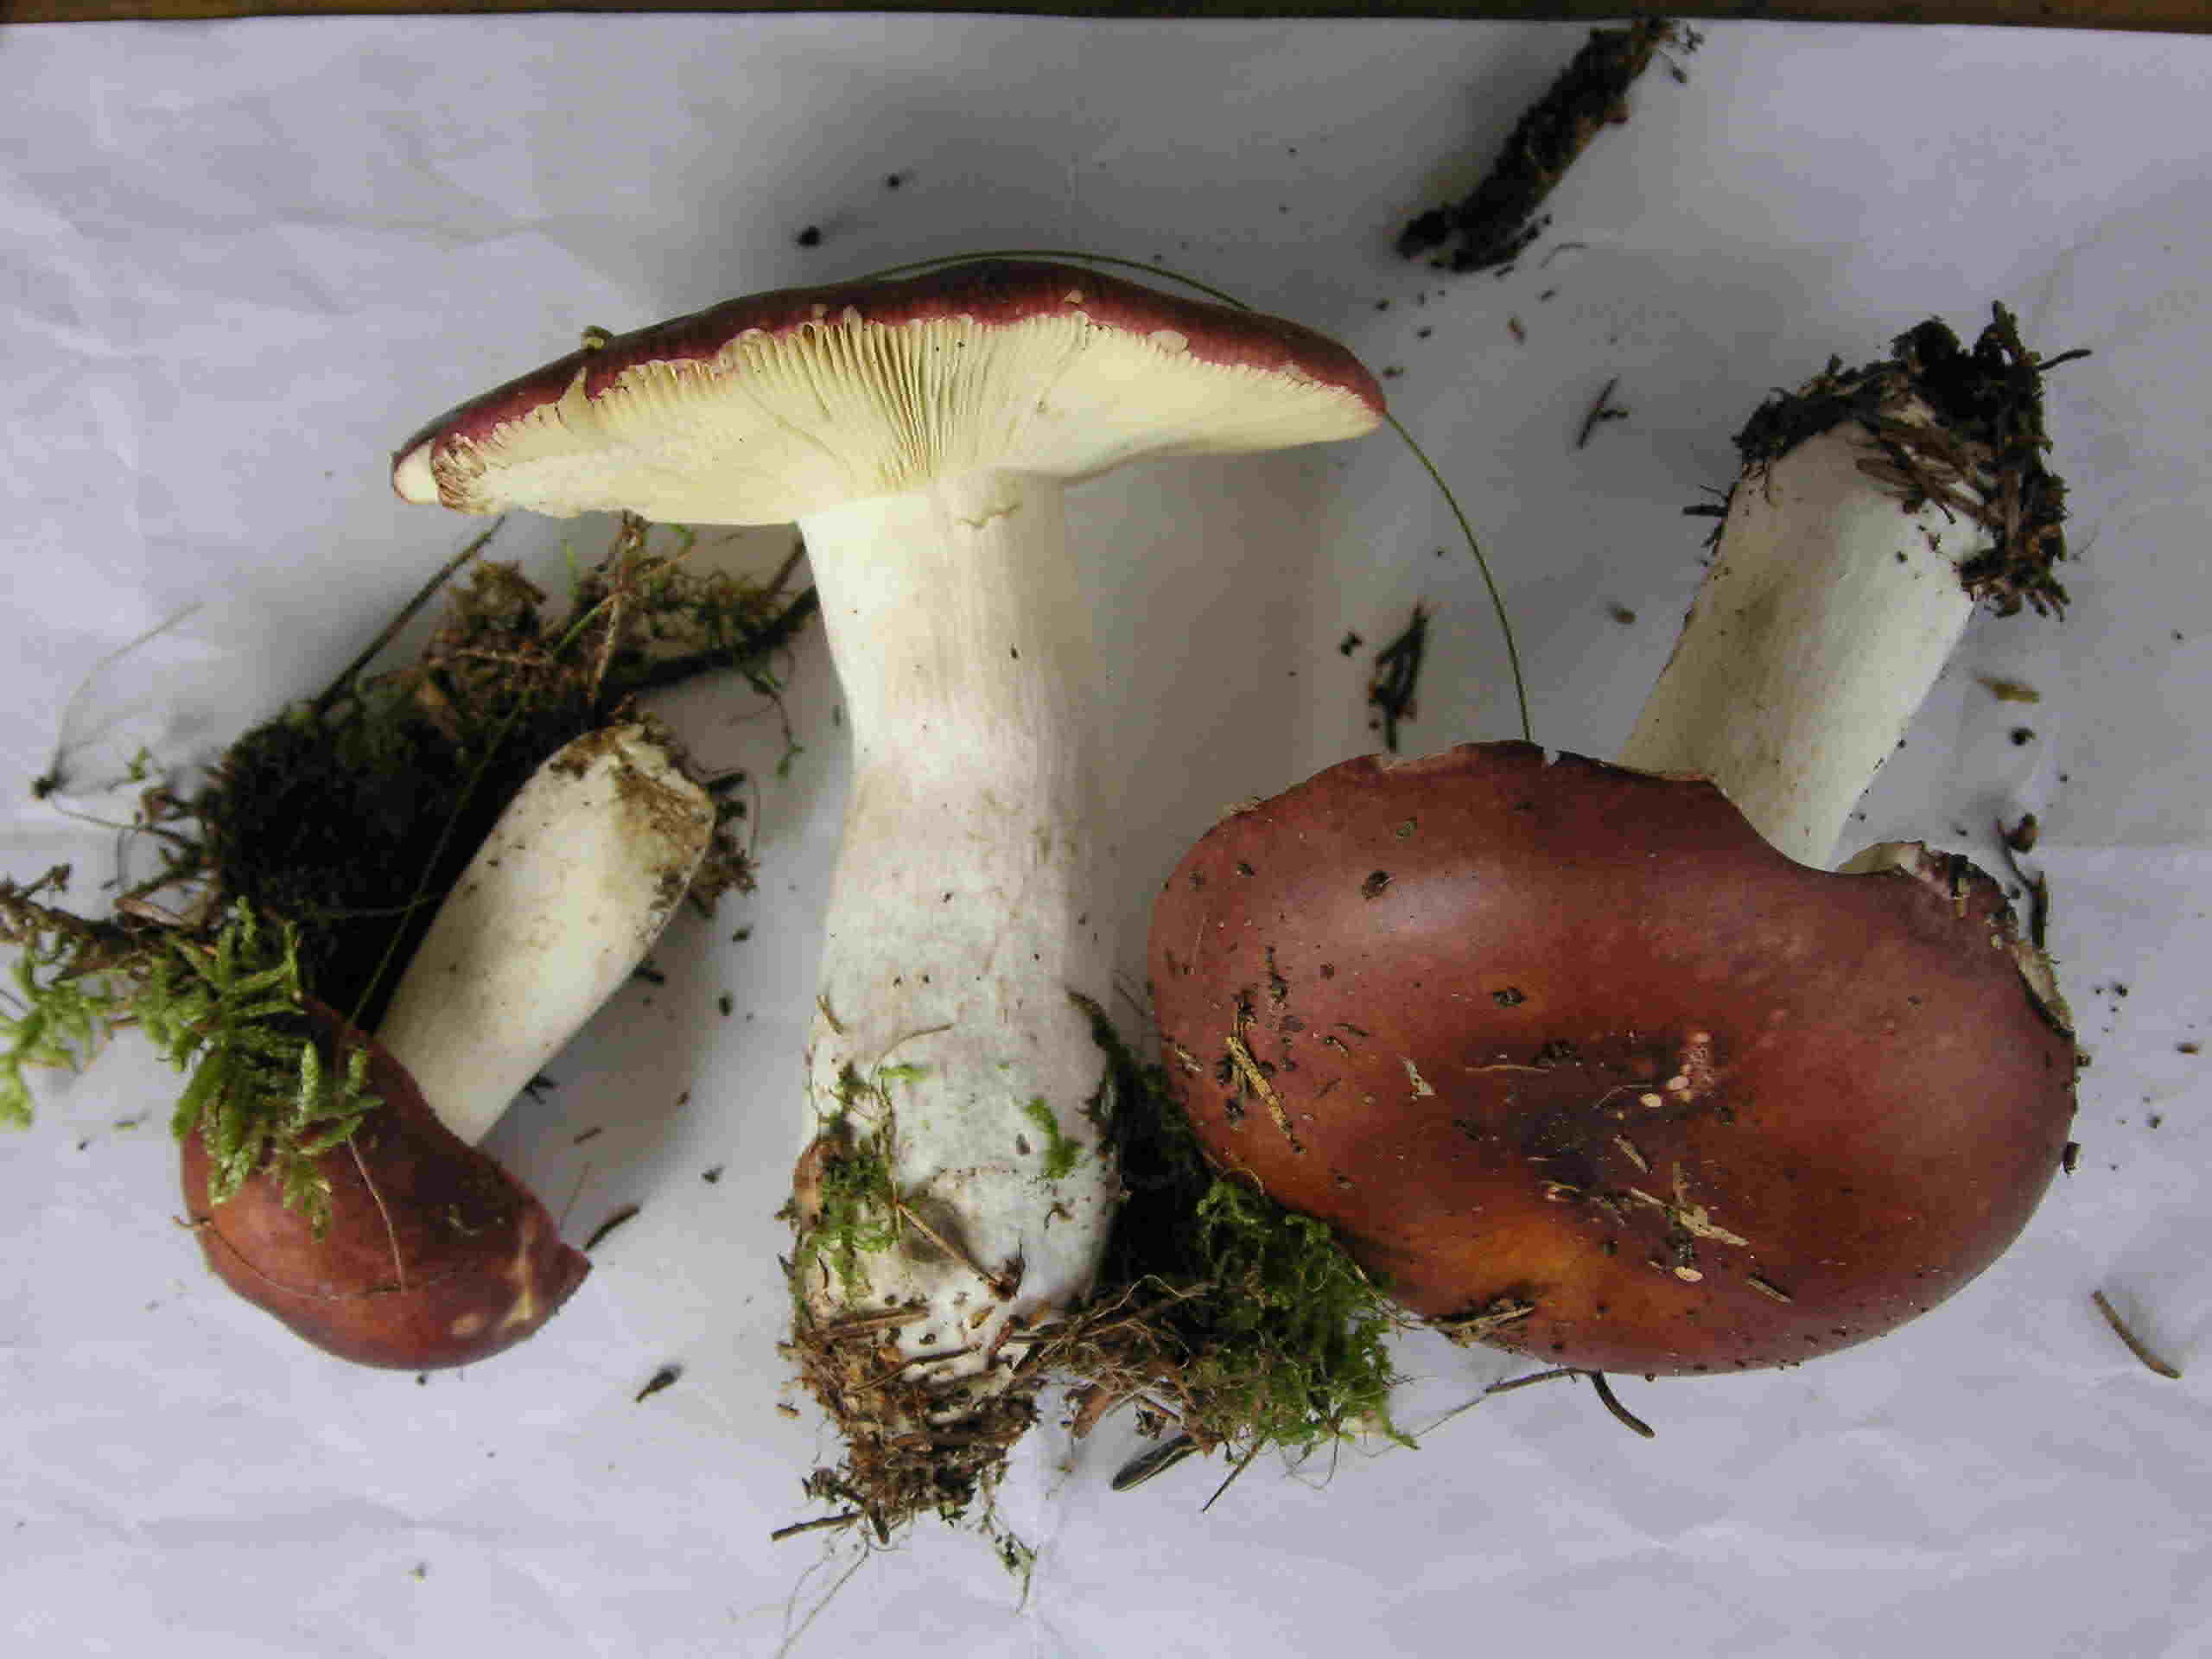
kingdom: Fungi
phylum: Basidiomycota
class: Agaricomycetes
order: Russulales
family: Russulaceae
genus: Russula
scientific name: Russula vinosa
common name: vinrød skørhat
